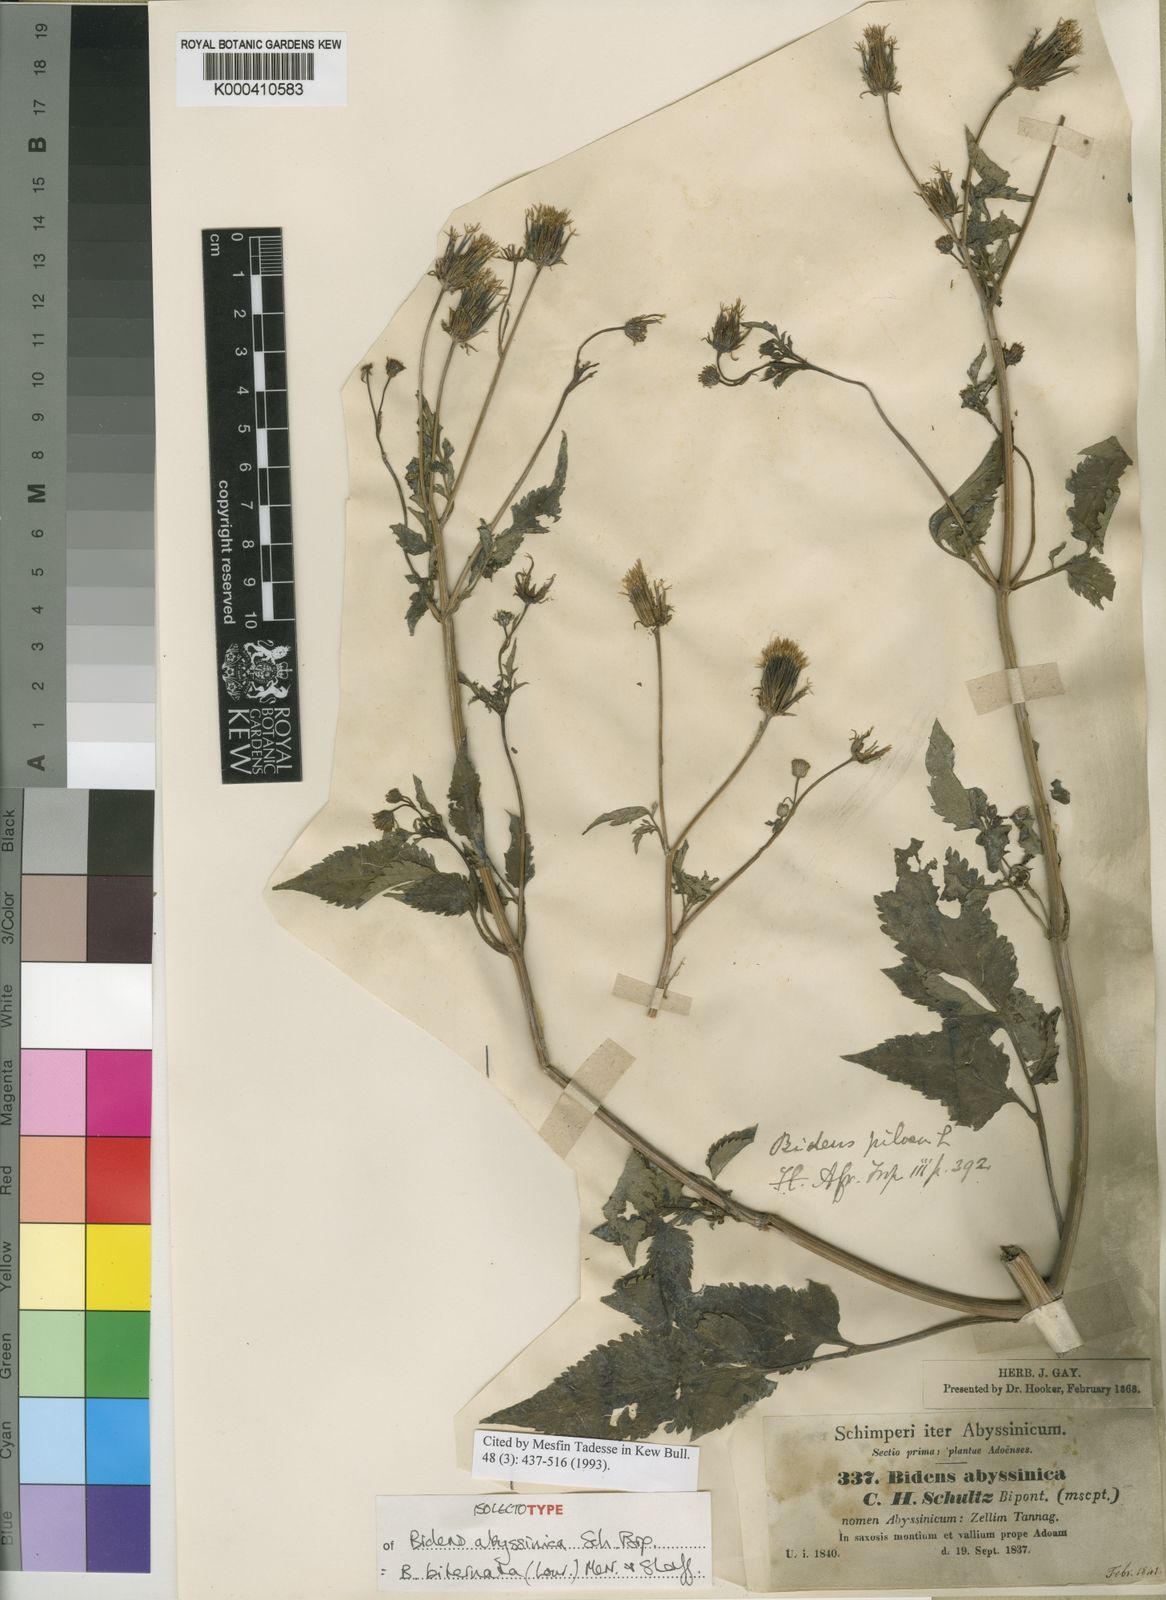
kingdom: Plantae
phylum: Tracheophyta
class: Magnoliopsida
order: Asterales
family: Asteraceae
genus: Bidens
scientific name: Bidens biternata
